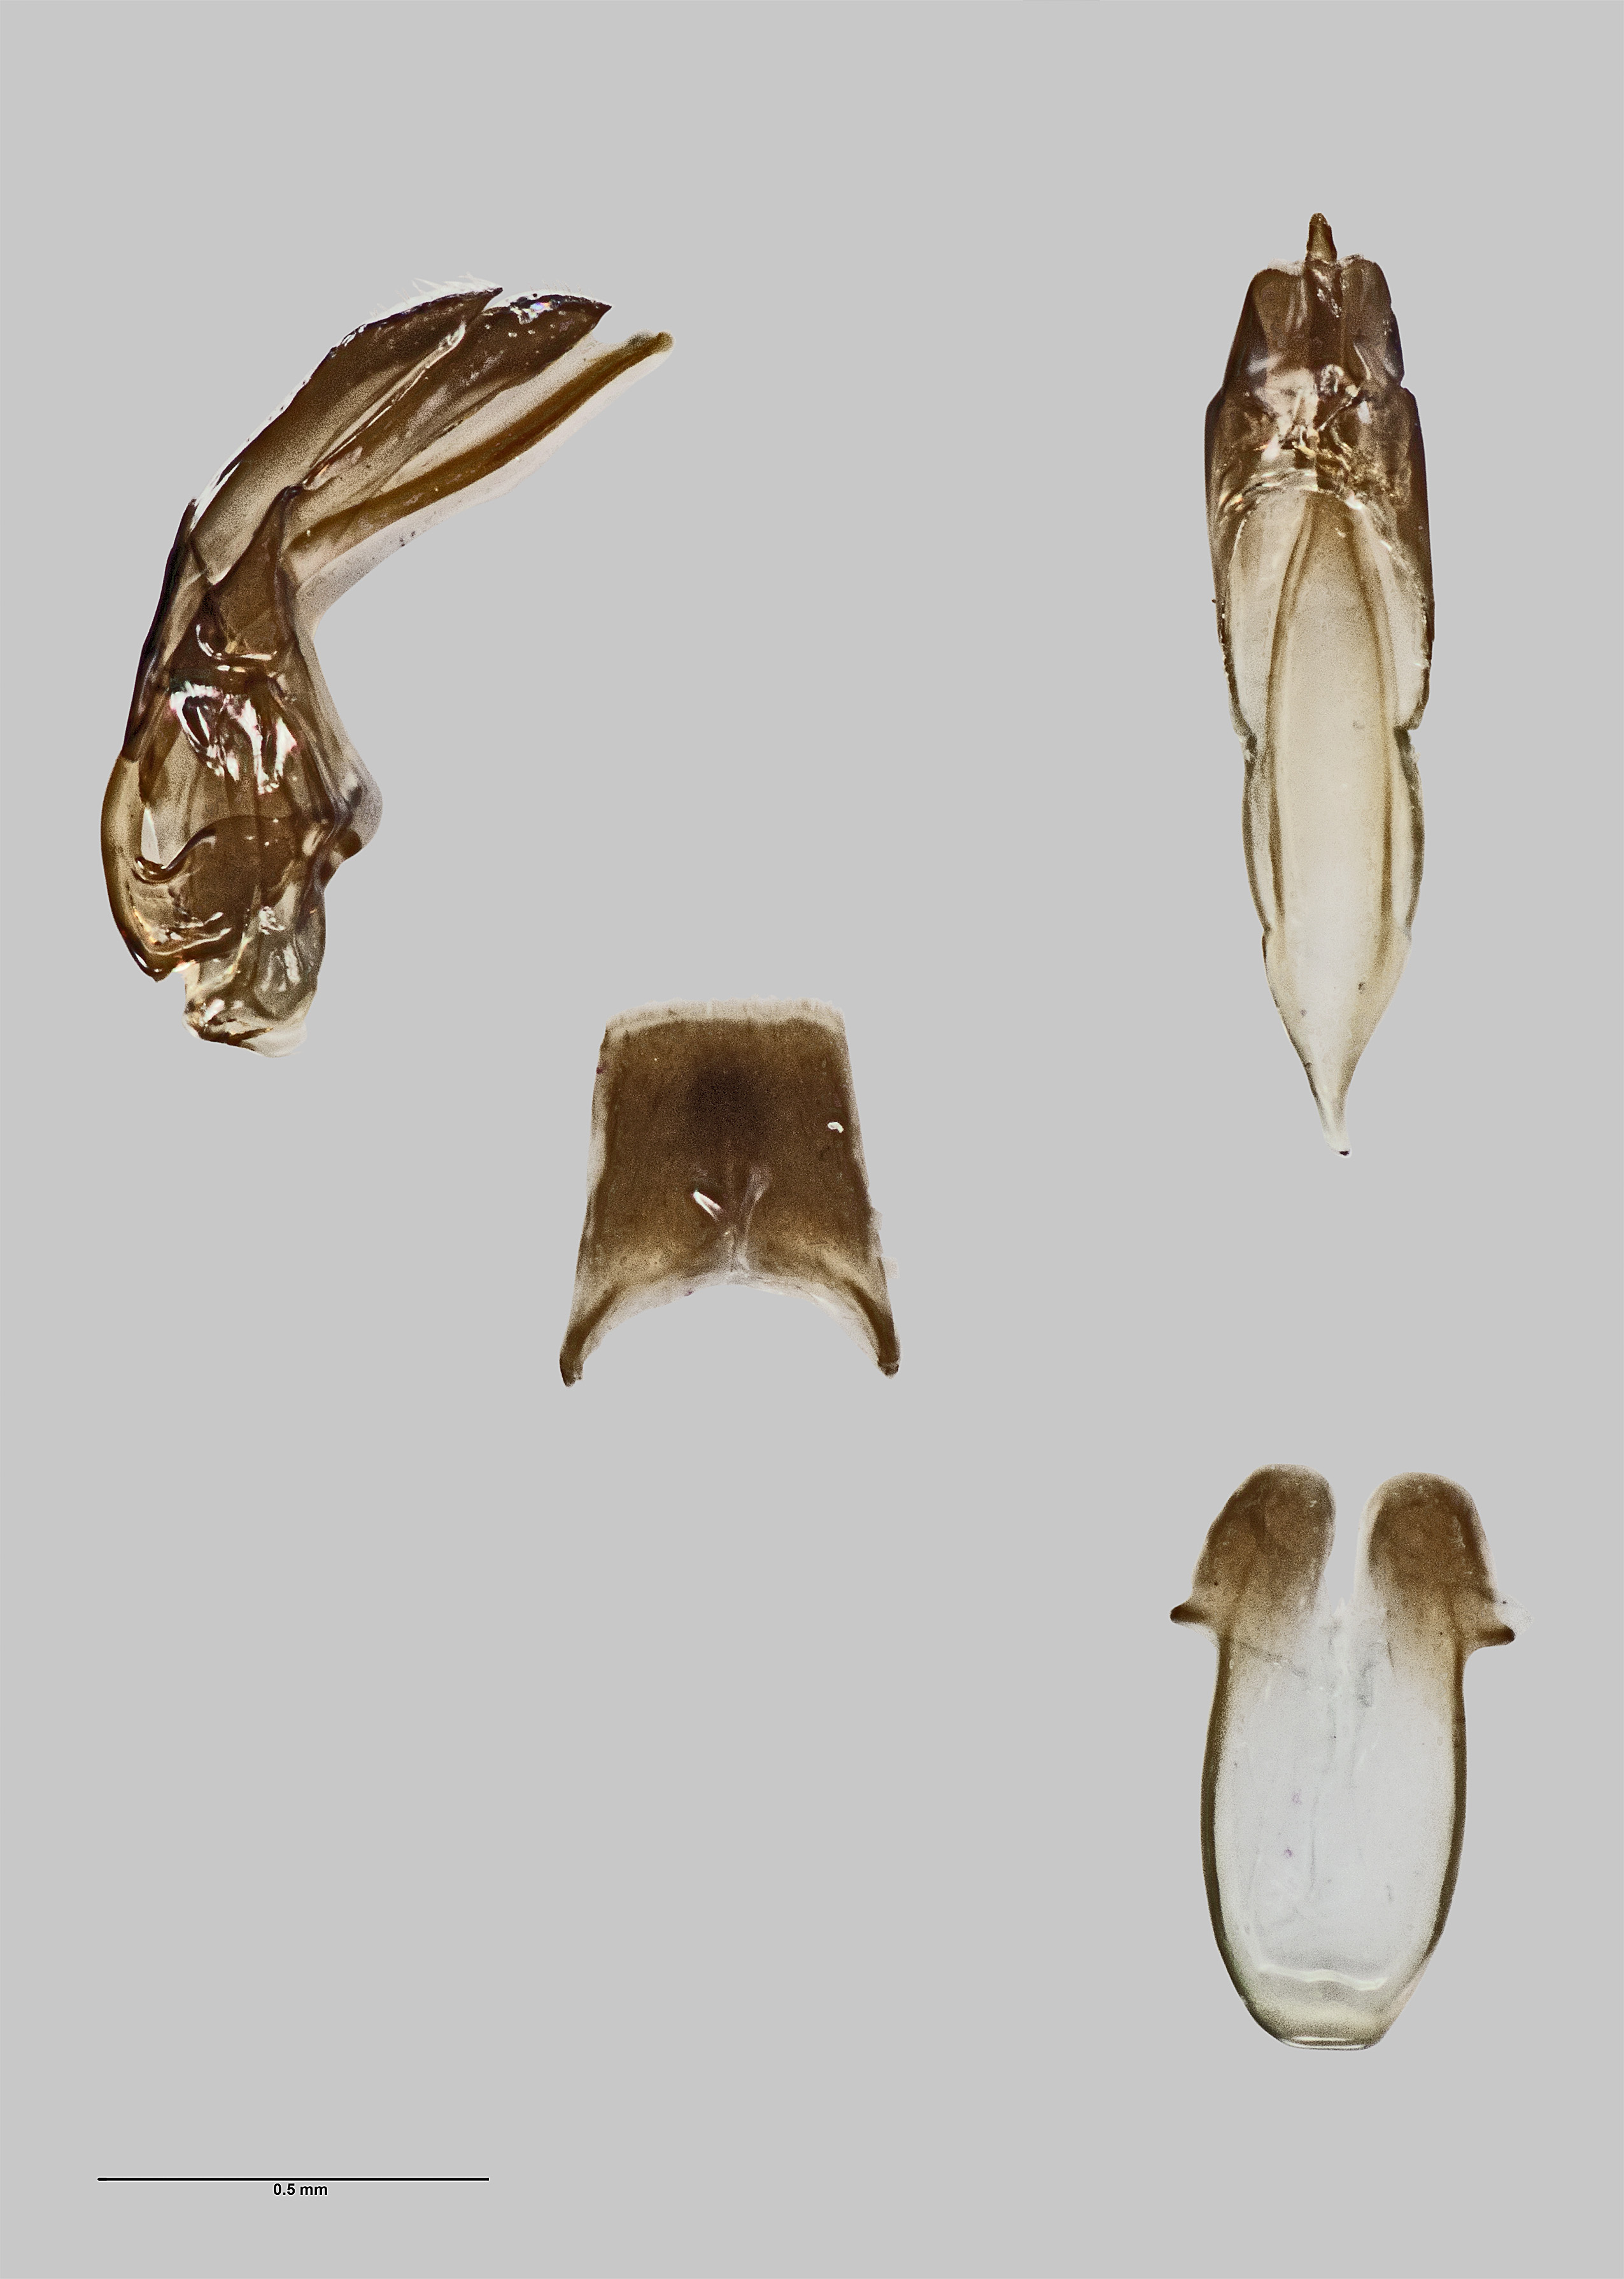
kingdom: Animalia
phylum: Arthropoda
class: Insecta
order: Coleoptera
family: Scirtidae
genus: Stenocyphon
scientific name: Stenocyphon neozealandicus
